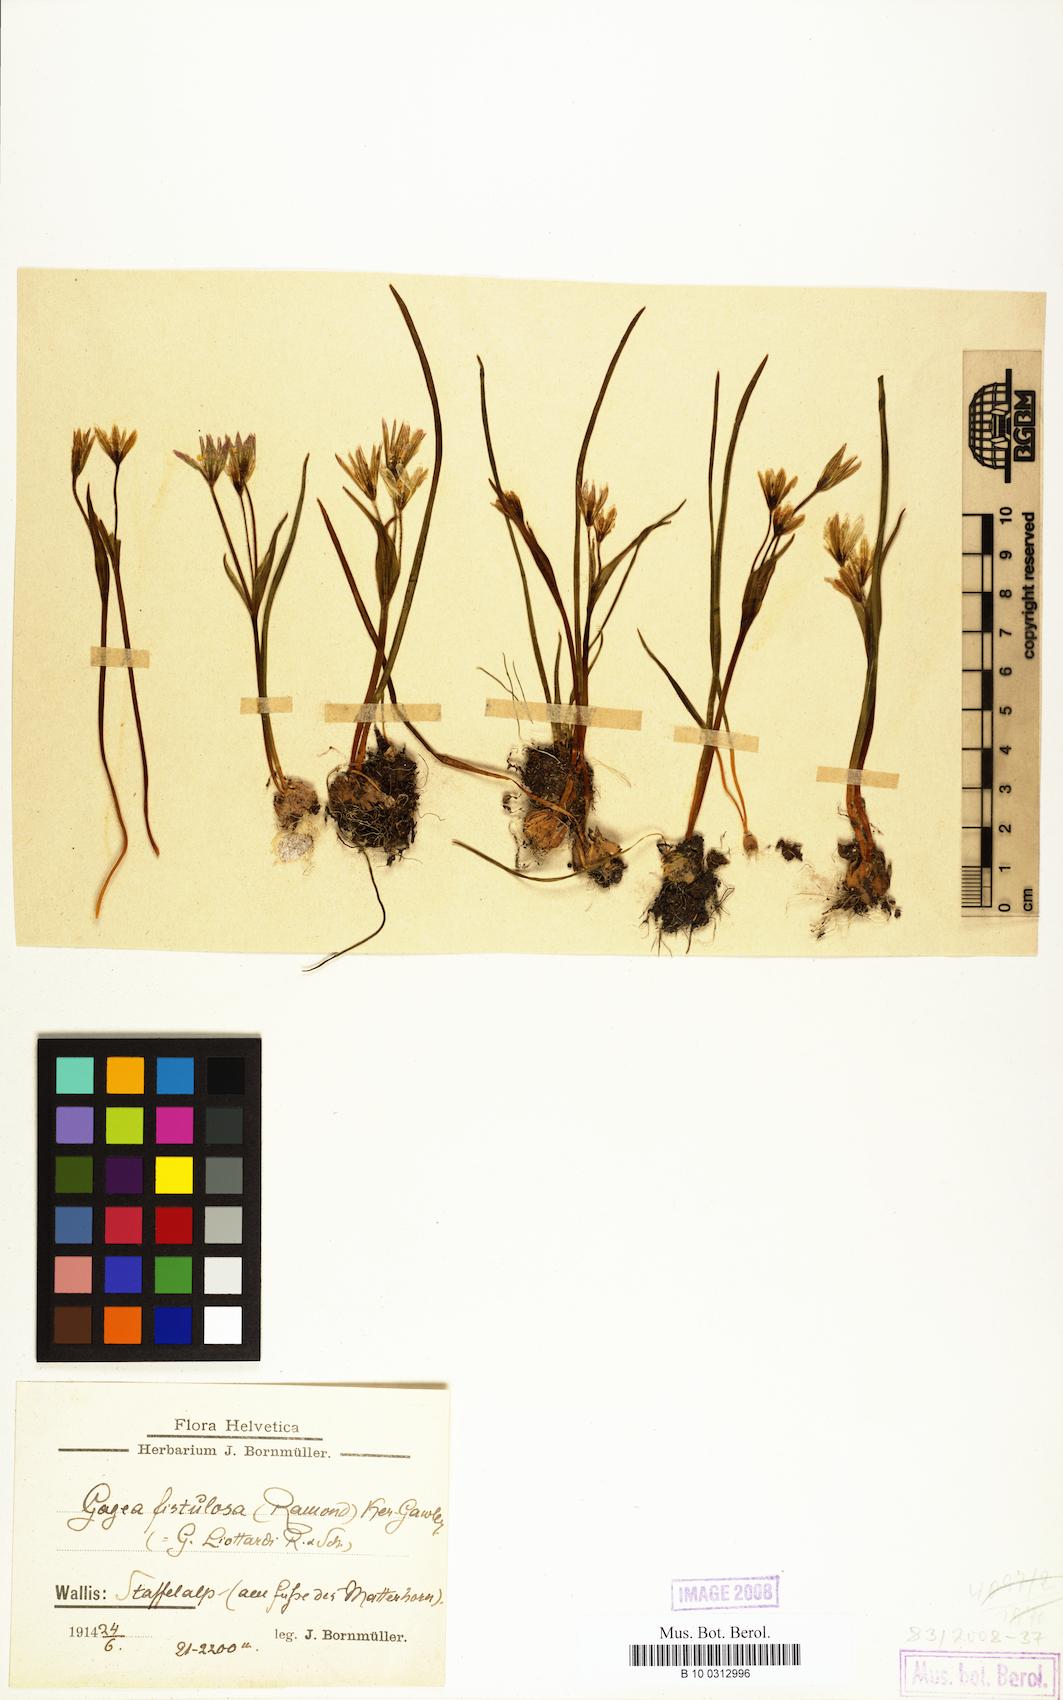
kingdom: Plantae
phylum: Tracheophyta
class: Liliopsida
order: Liliales
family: Liliaceae
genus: Gagea
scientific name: Gagea
